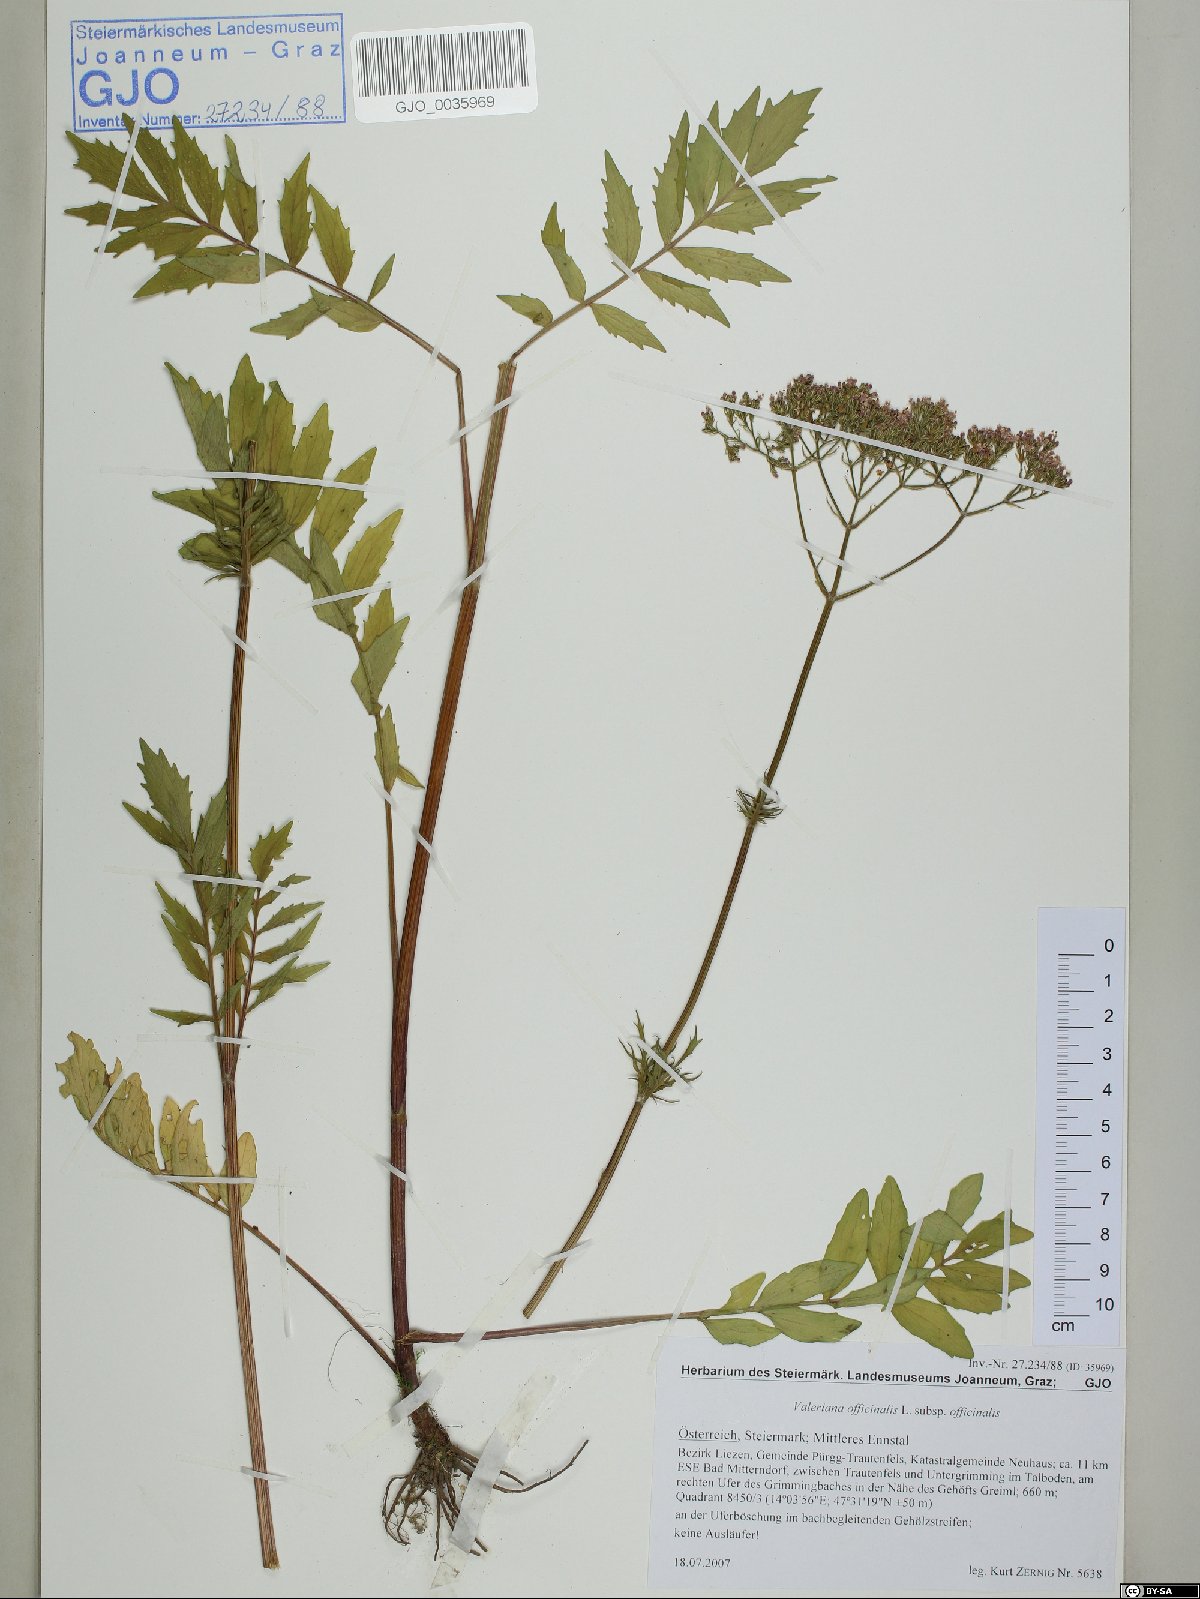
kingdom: Plantae
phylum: Tracheophyta
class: Magnoliopsida
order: Dipsacales
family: Caprifoliaceae
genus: Valeriana
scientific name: Valeriana officinalis
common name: Common valerian
